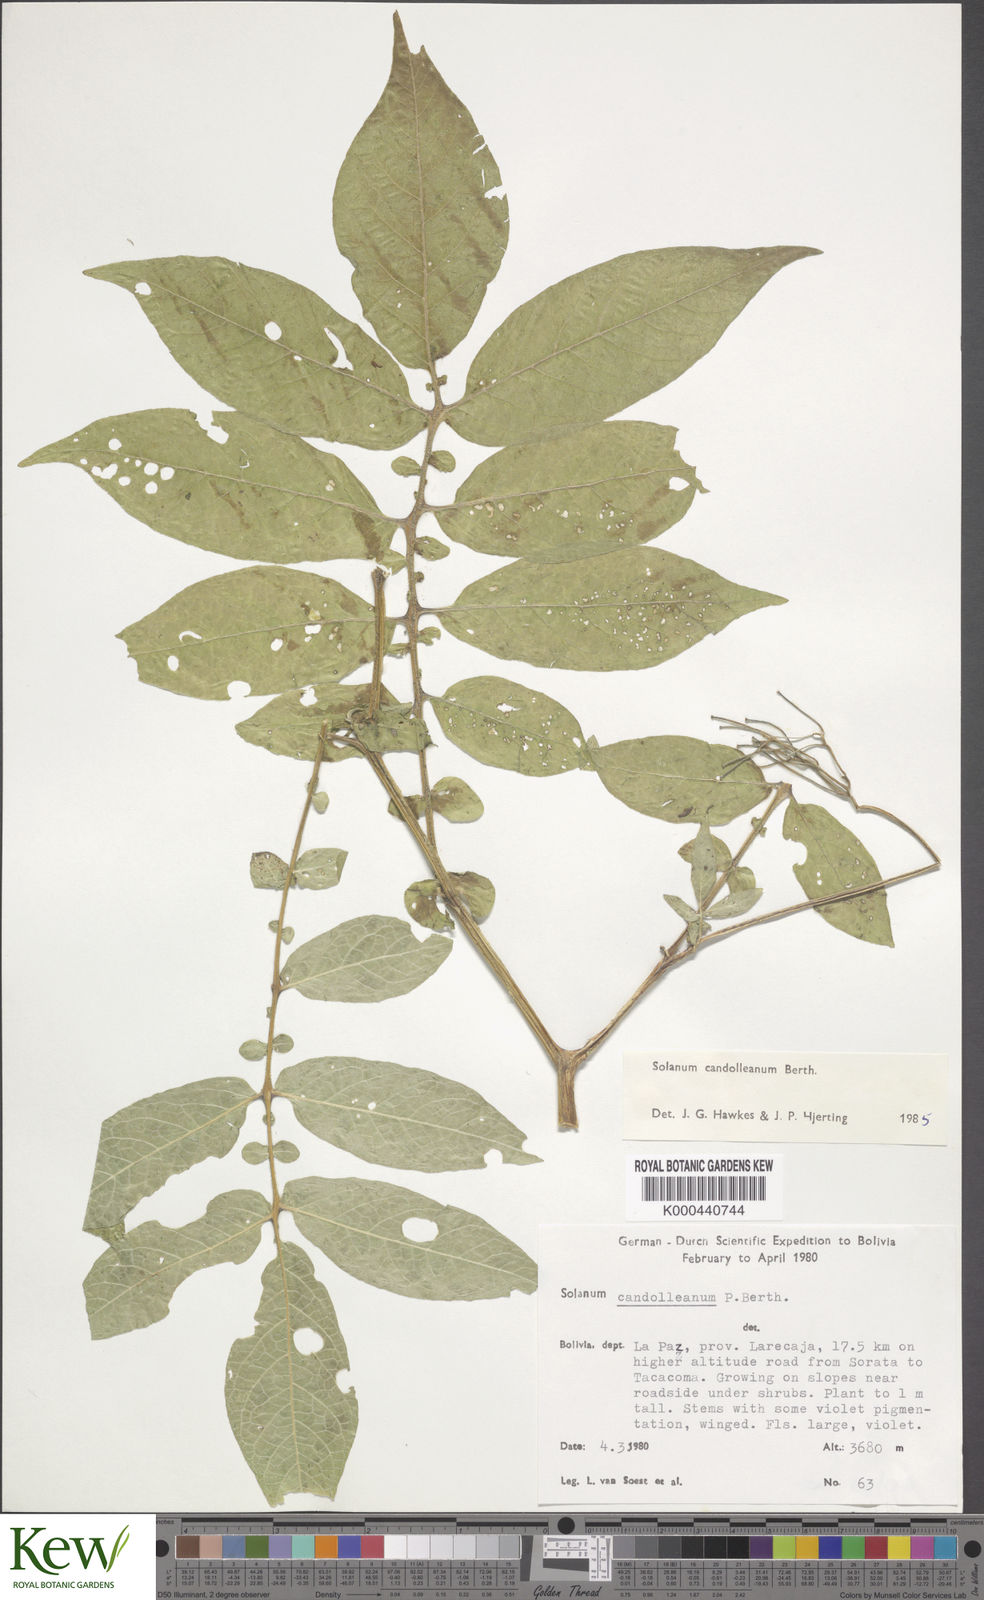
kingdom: Plantae
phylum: Tracheophyta
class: Magnoliopsida
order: Solanales
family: Solanaceae
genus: Solanum
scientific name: Solanum brevicaule
